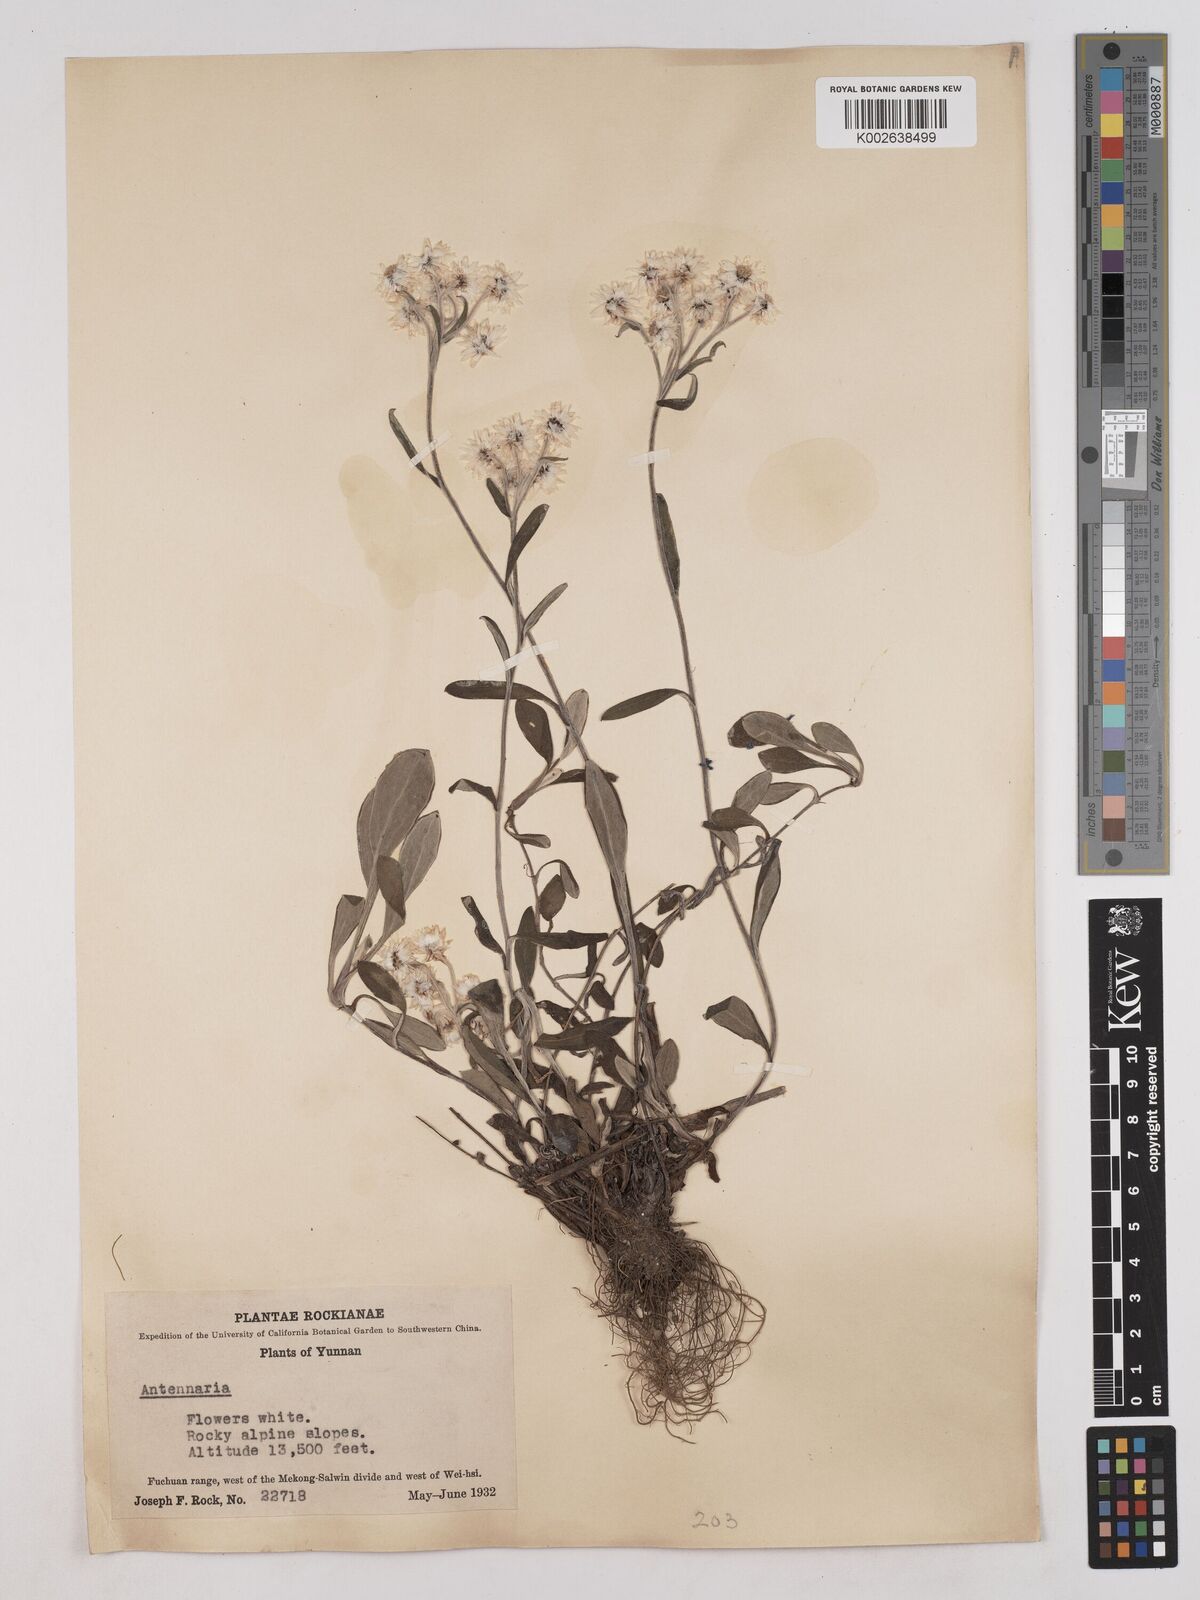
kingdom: Plantae
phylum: Tracheophyta
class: Magnoliopsida
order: Asterales
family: Asteraceae
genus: Anaphalis
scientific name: Anaphalis nepalensis
